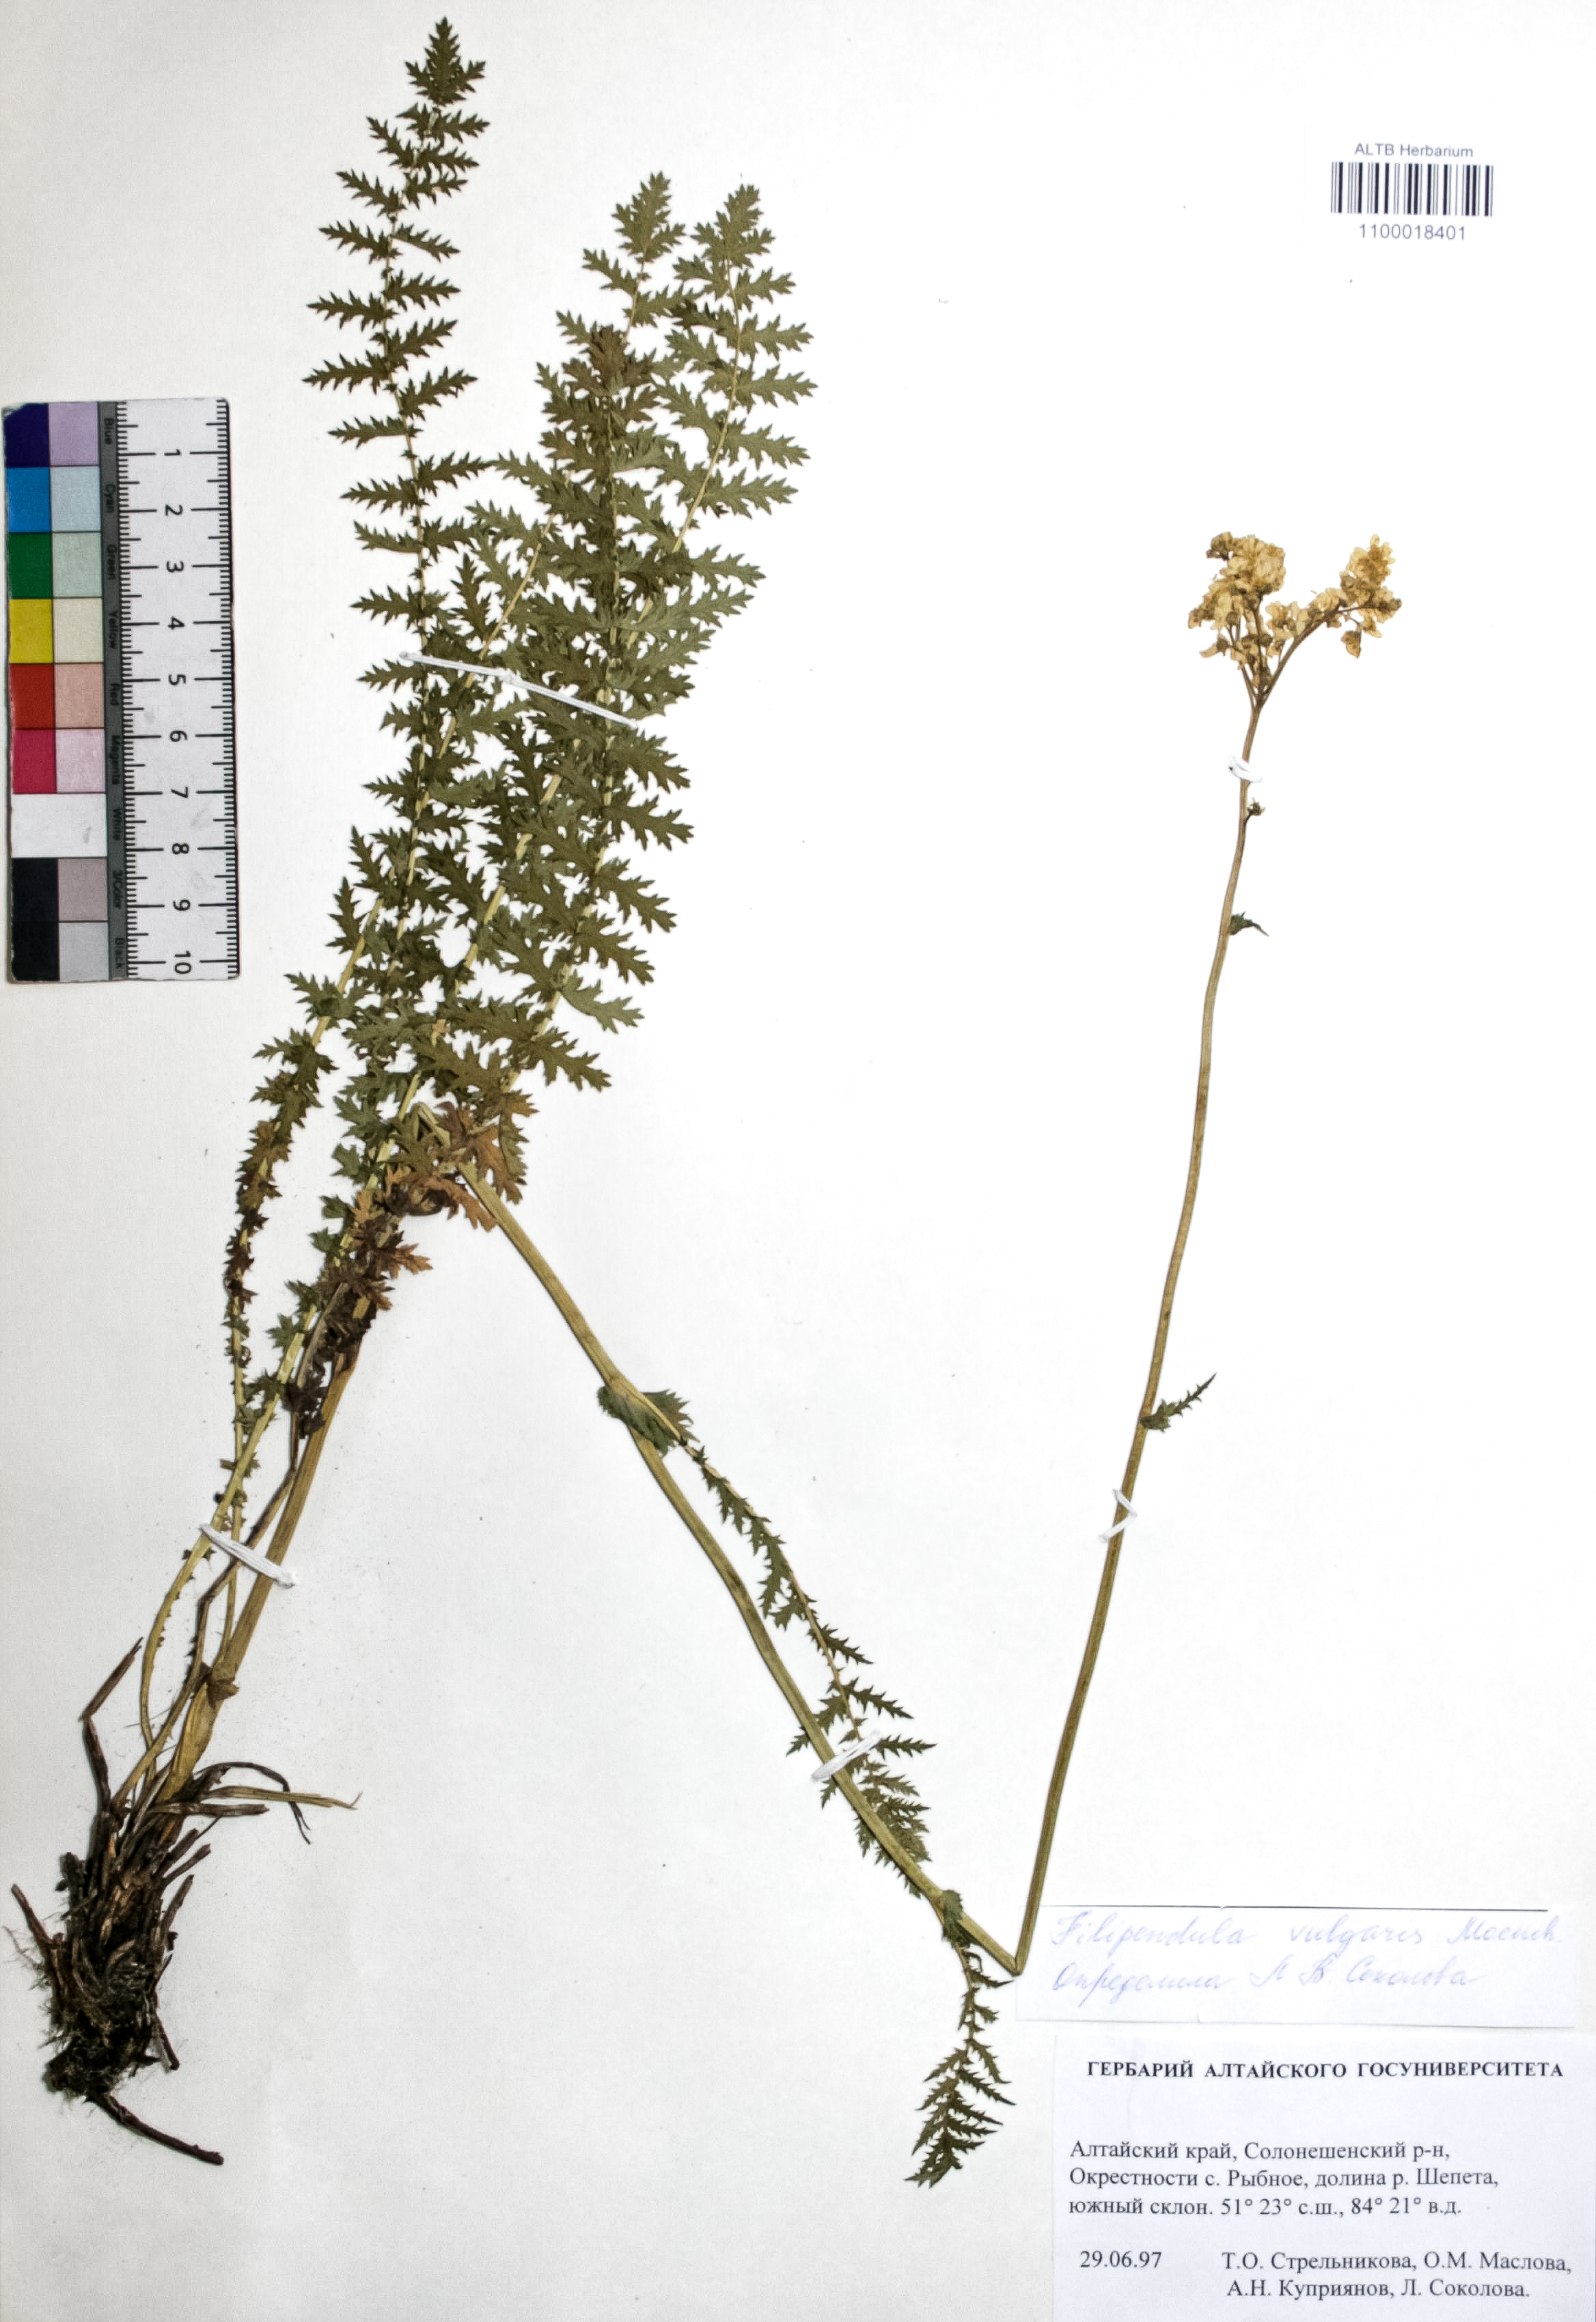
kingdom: Plantae
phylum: Tracheophyta
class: Magnoliopsida
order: Rosales
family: Rosaceae
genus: Filipendula
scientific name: Filipendula vulgaris
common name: Dropwort
